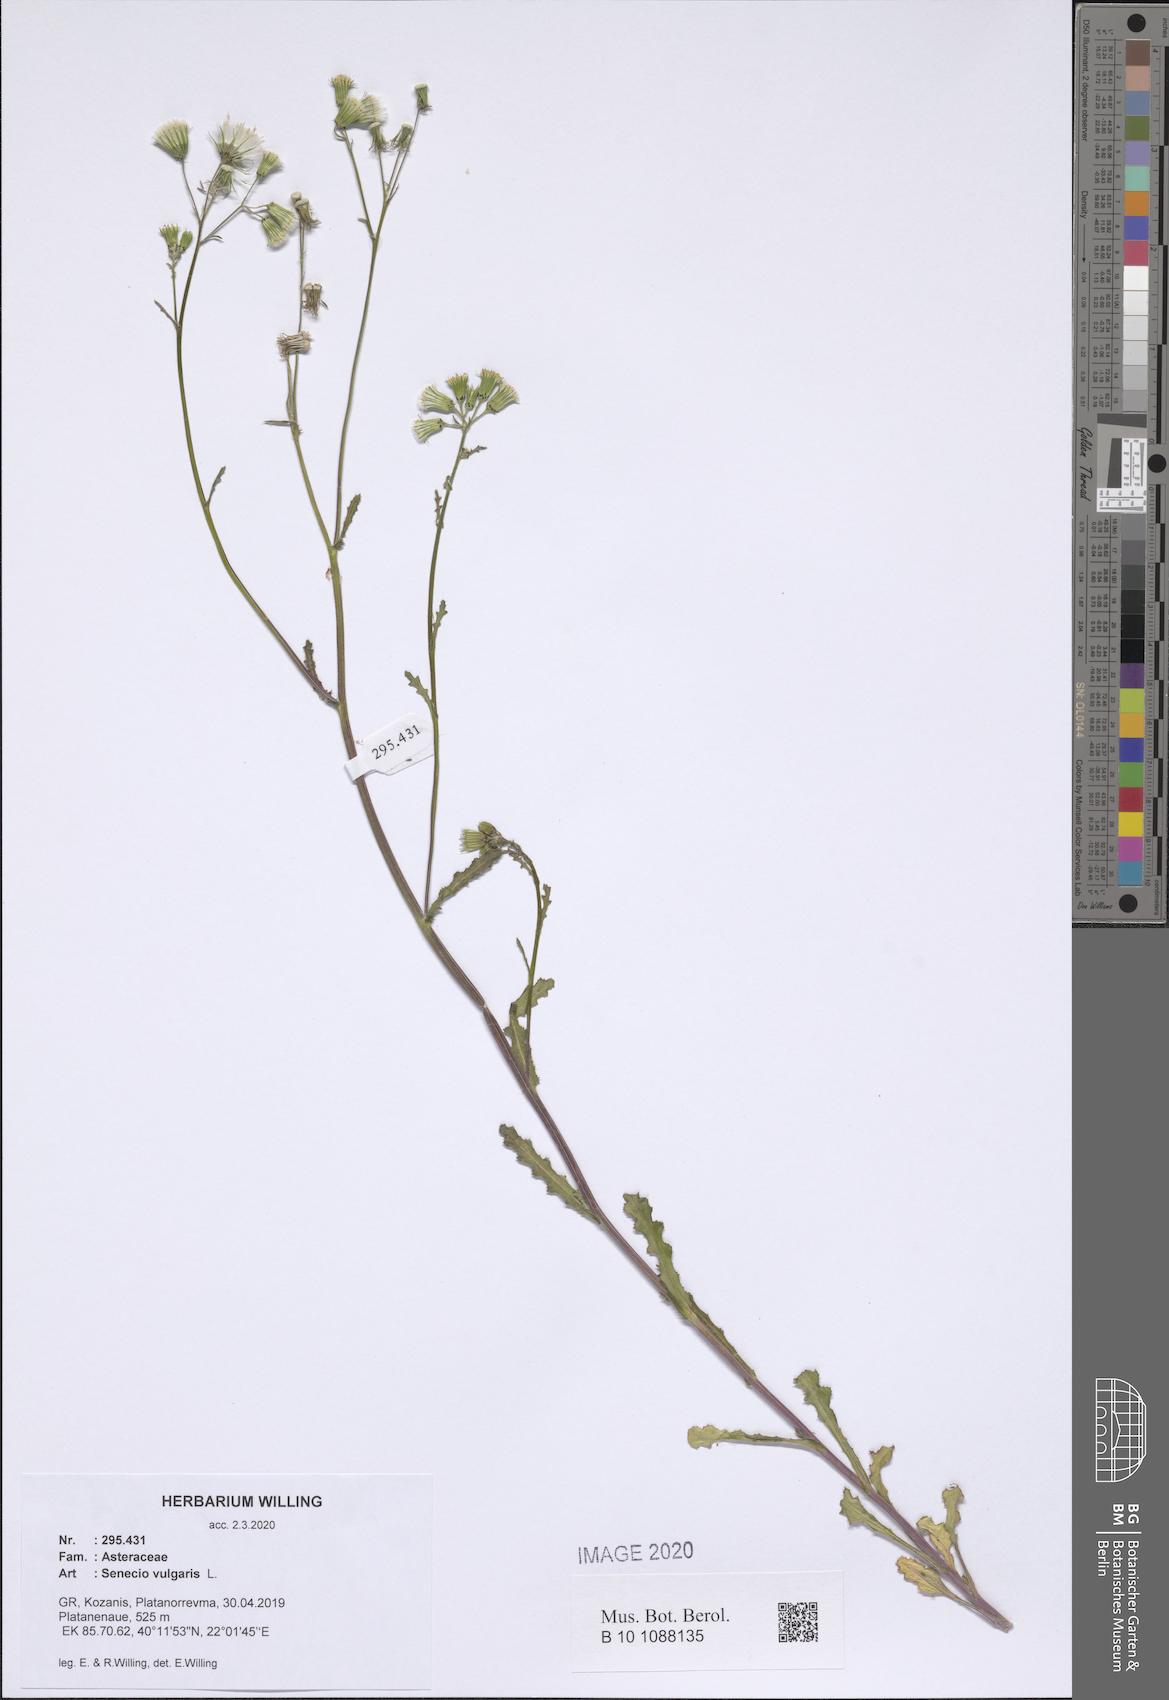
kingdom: Plantae
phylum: Tracheophyta
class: Magnoliopsida
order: Asterales
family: Asteraceae
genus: Senecio
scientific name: Senecio vulgaris
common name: Old-man-in-the-spring
